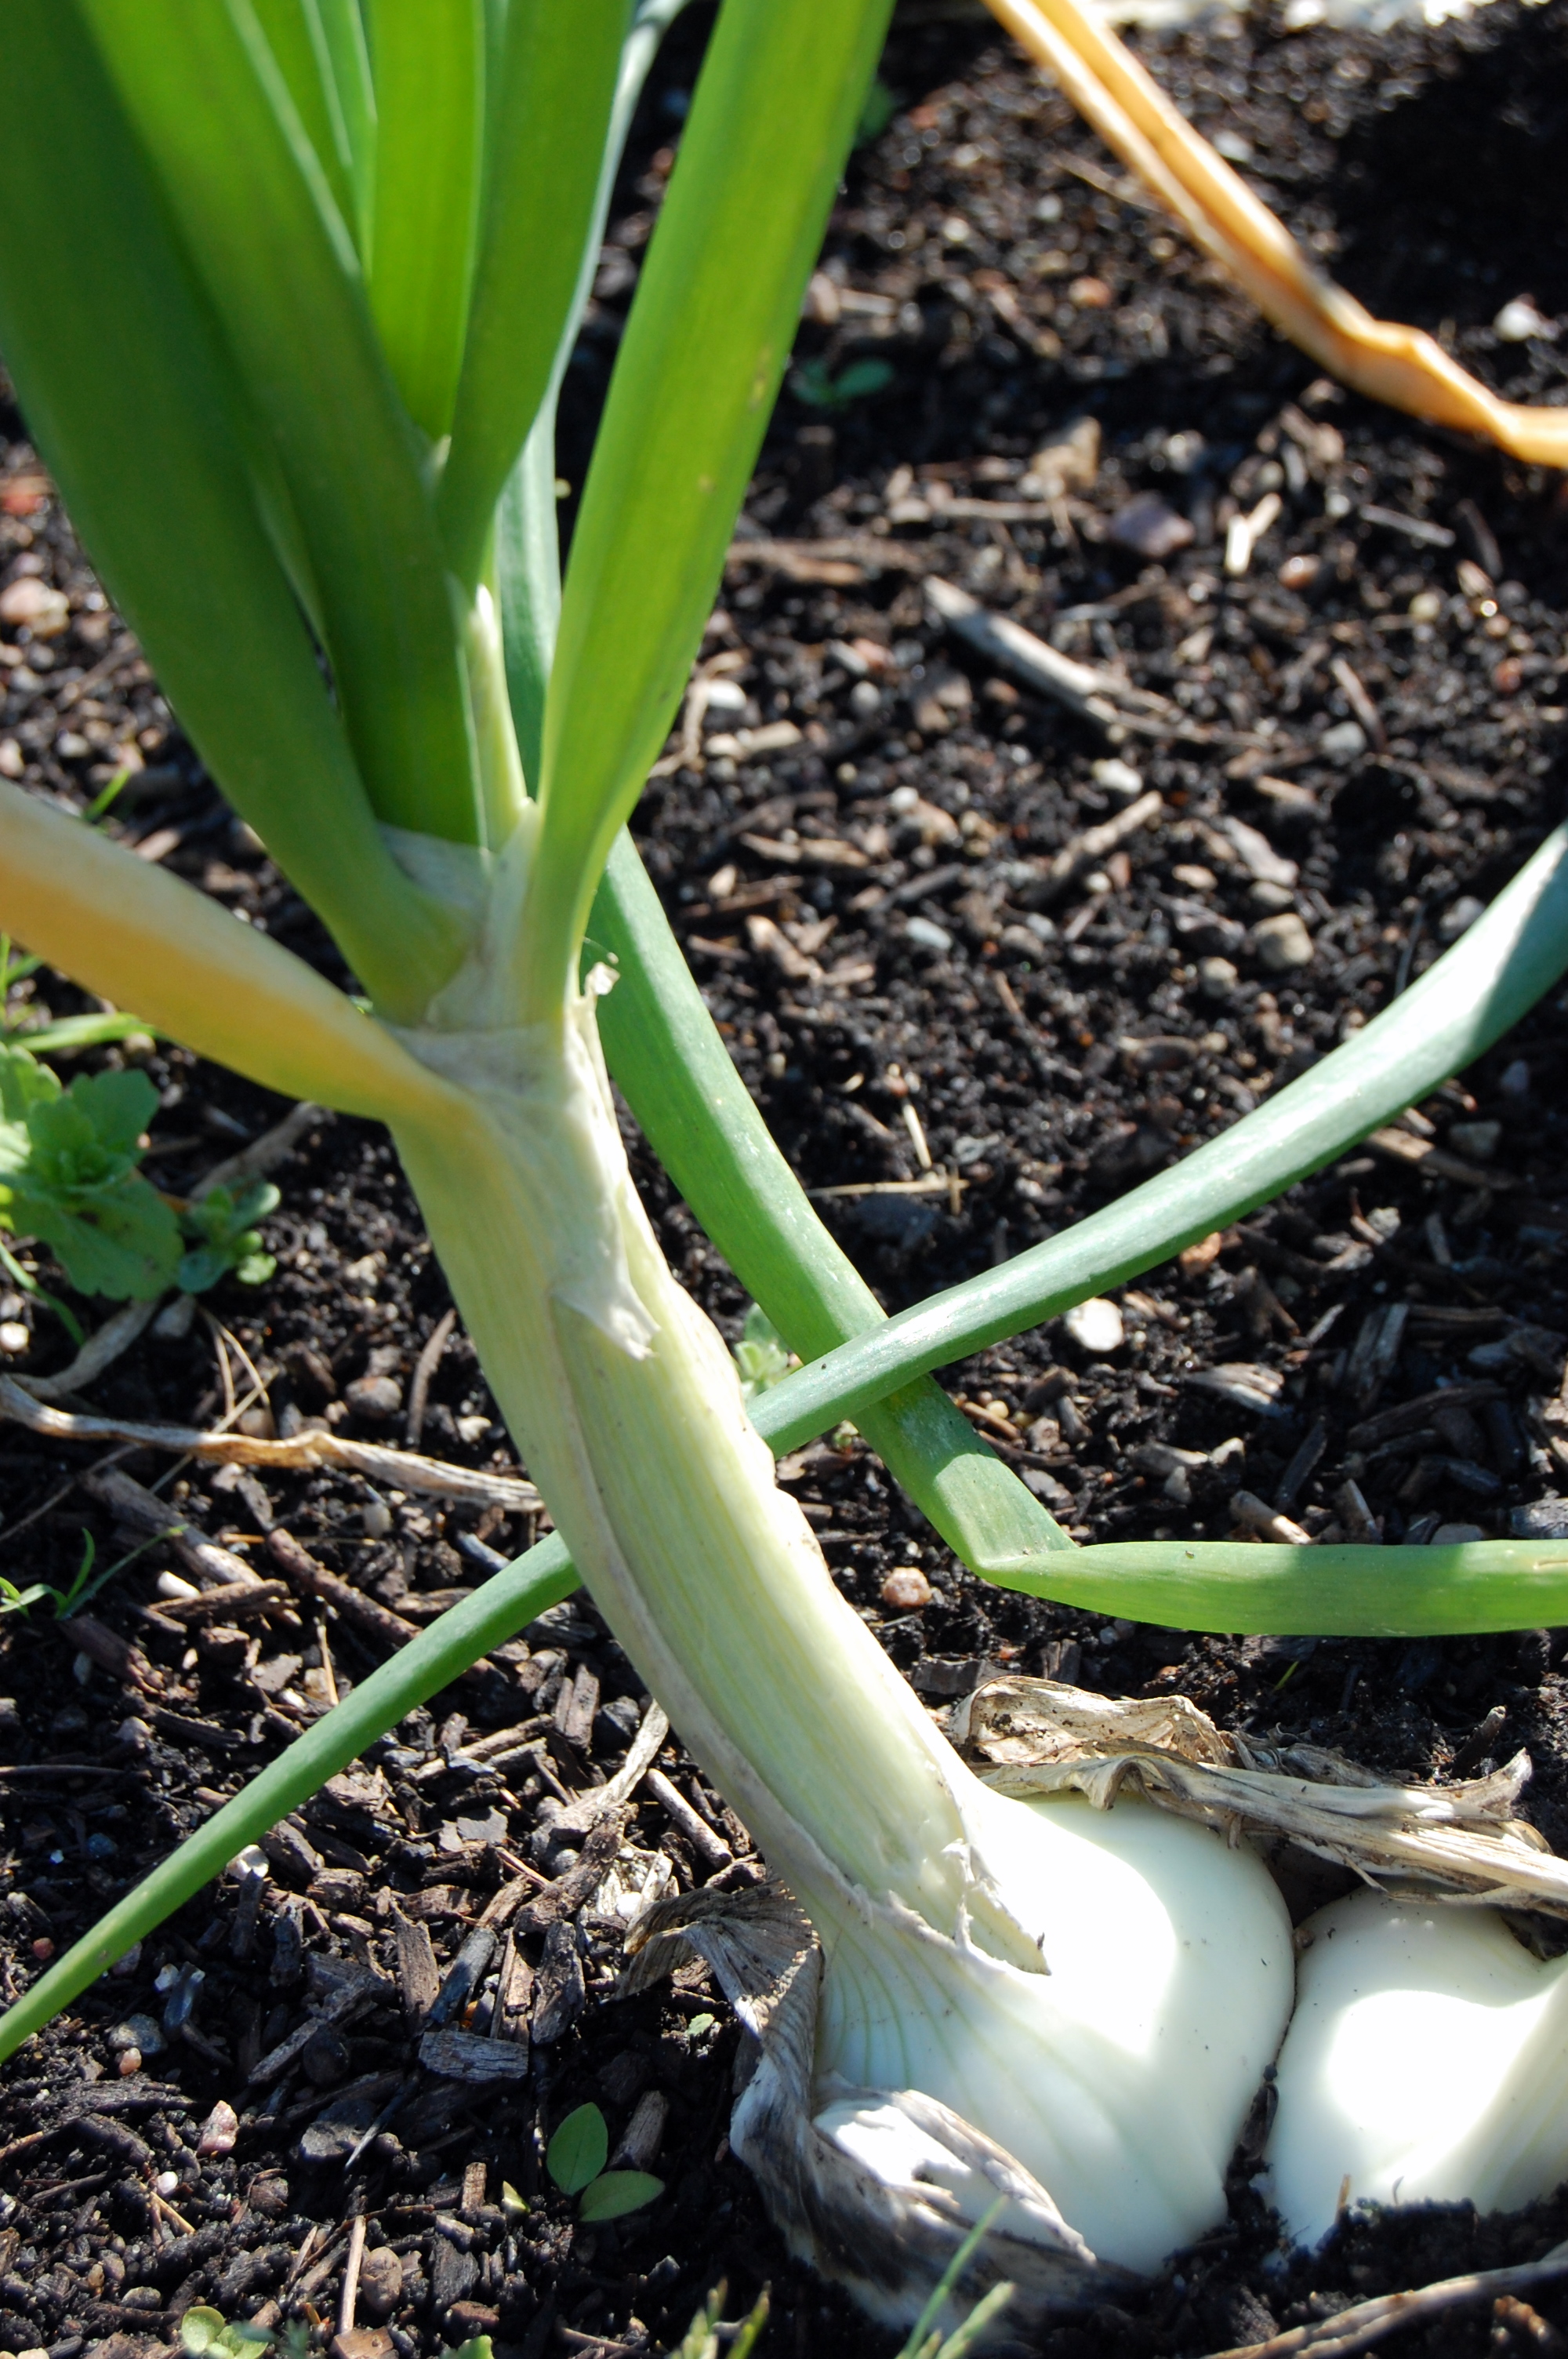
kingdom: Plantae
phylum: Tracheophyta
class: Liliopsida
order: Asparagales
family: Amaryllidaceae
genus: Allium
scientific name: Allium cepa
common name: Onion
